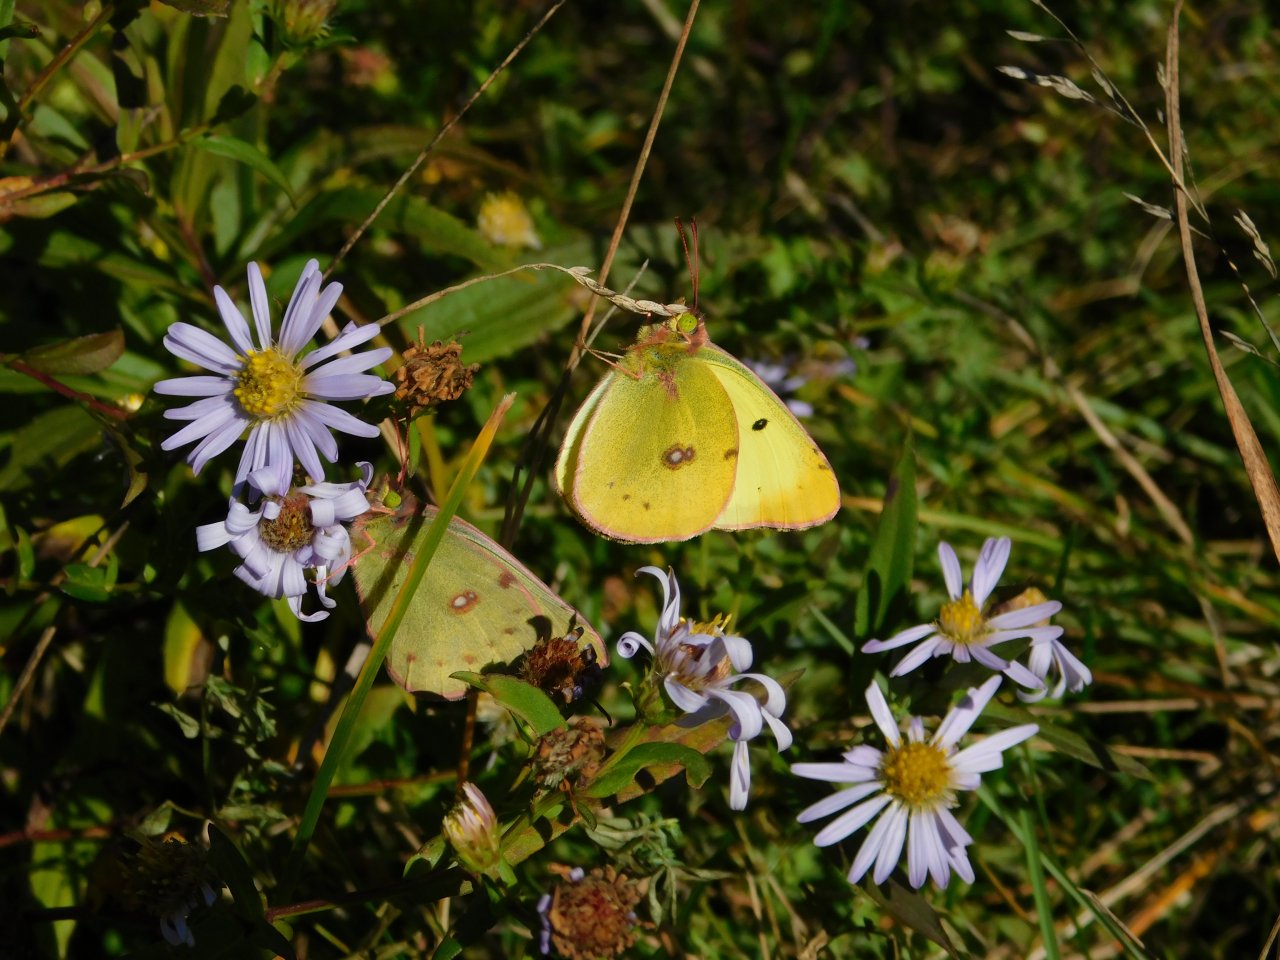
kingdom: Animalia
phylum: Arthropoda
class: Insecta
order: Lepidoptera
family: Pieridae
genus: Colias
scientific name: Colias philodice
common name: Clouded Sulphur
